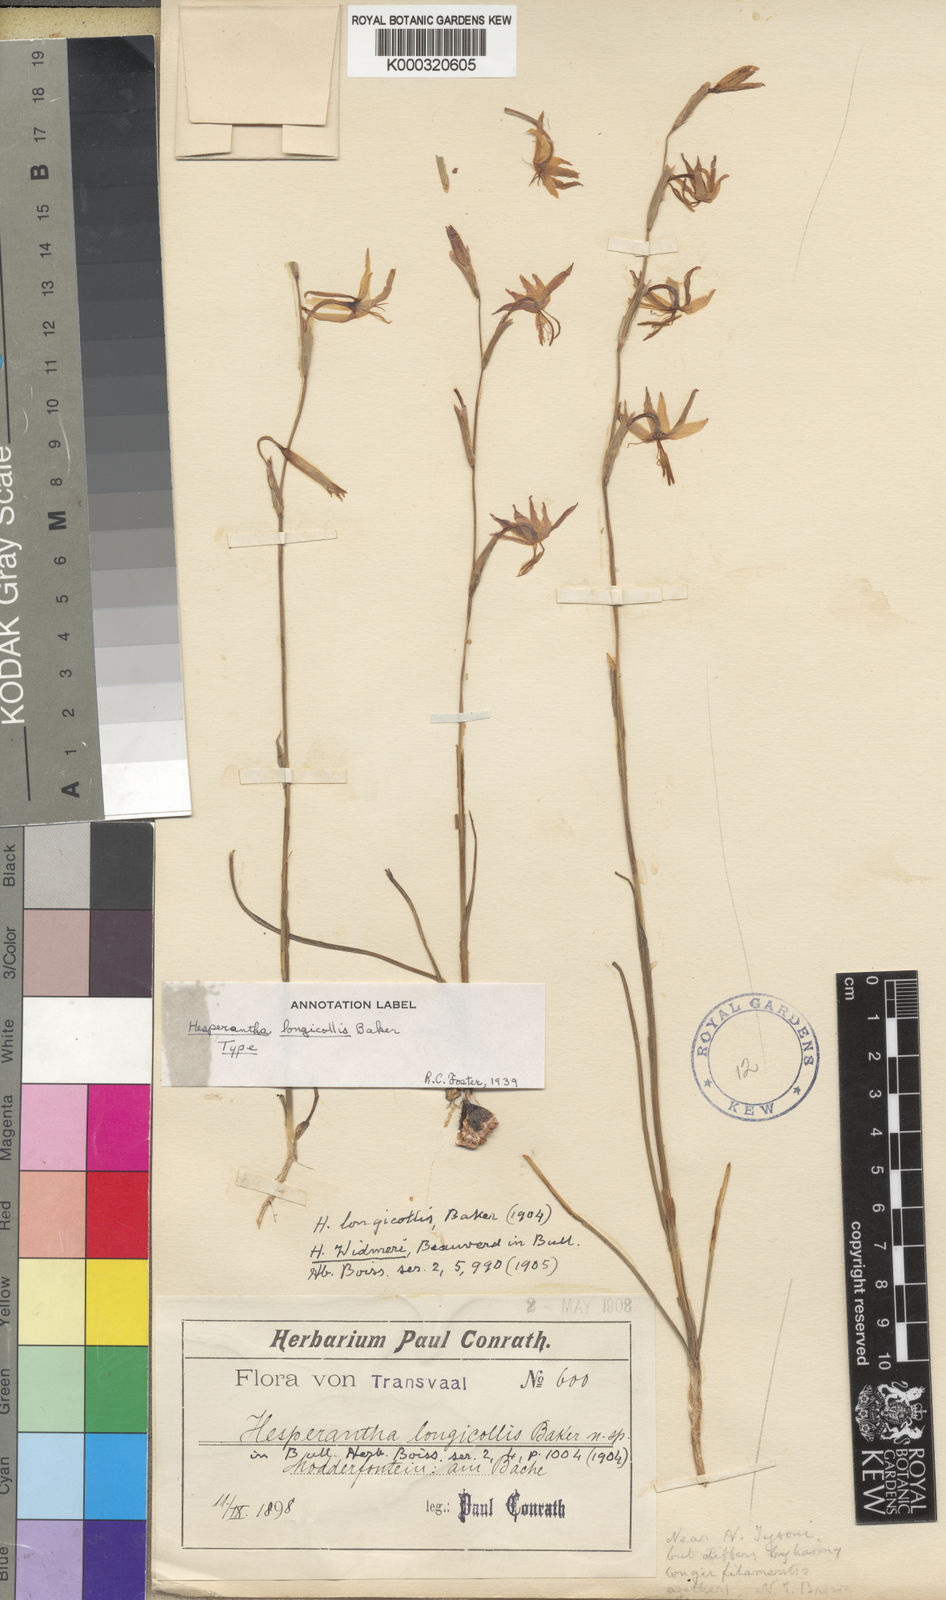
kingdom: Plantae
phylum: Tracheophyta
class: Liliopsida
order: Asparagales
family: Iridaceae
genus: Hesperantha
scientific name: Hesperantha longicollis
